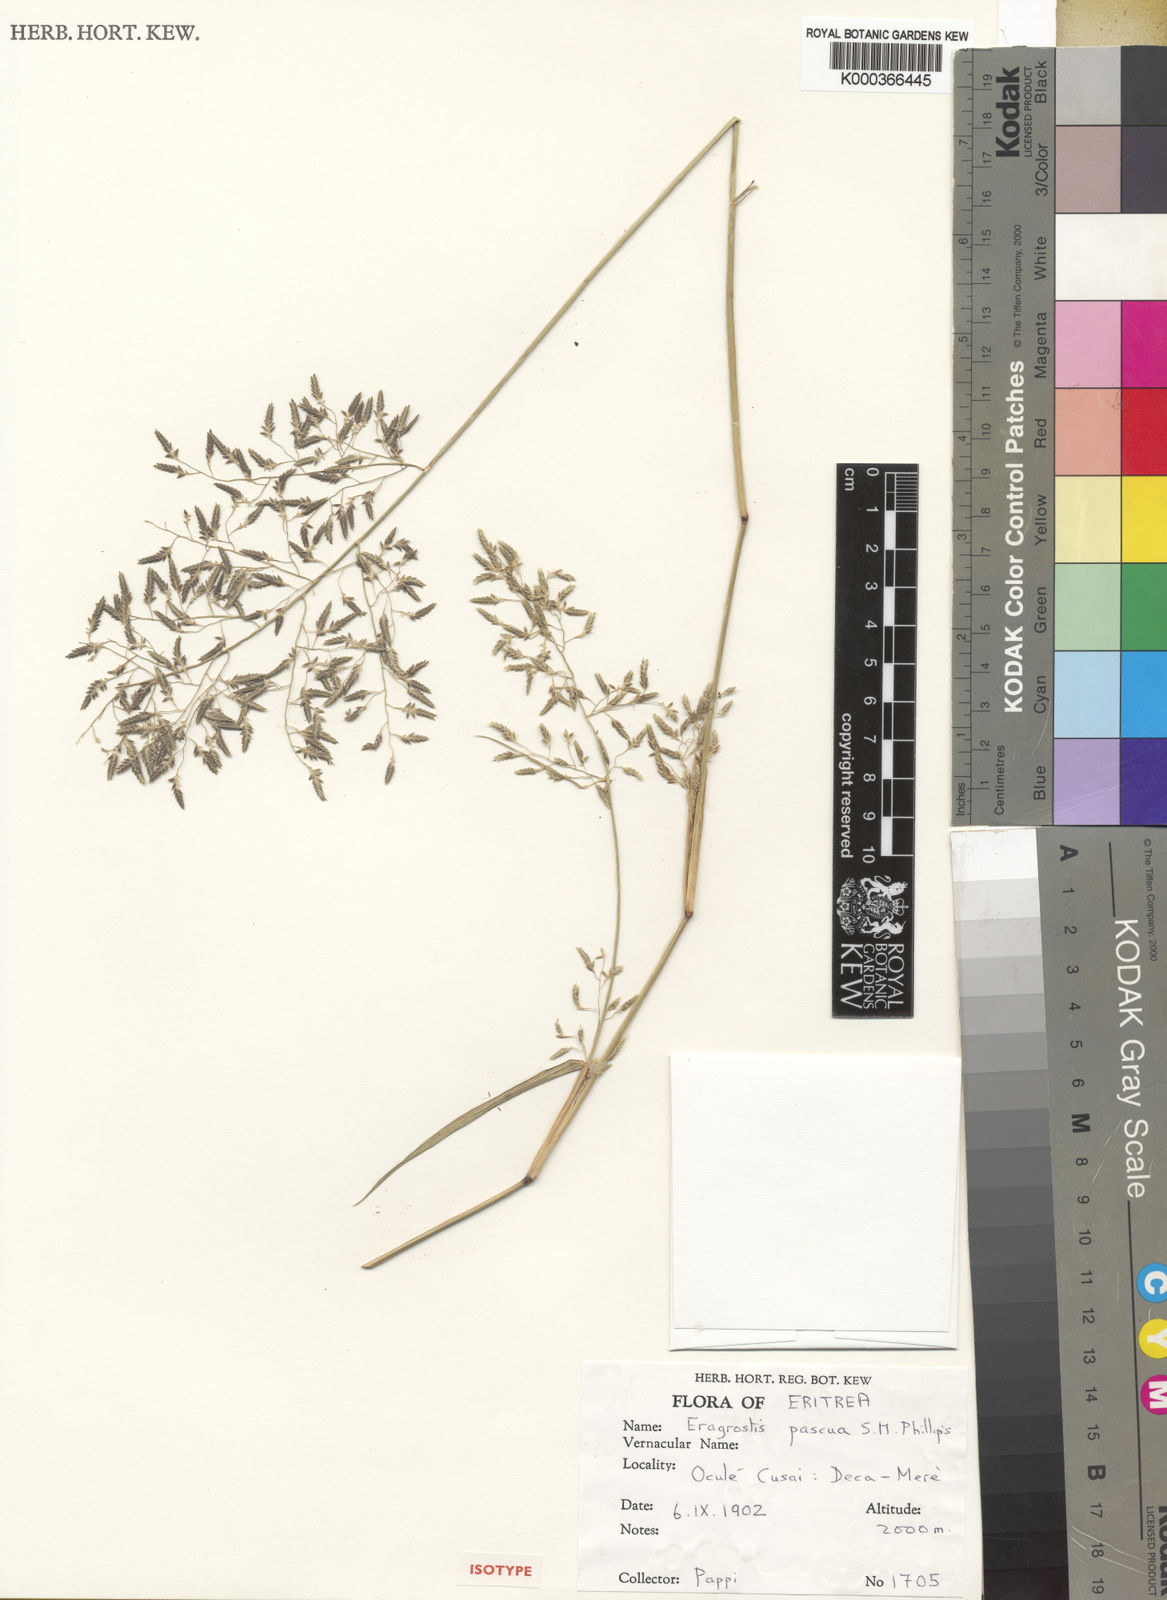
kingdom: Plantae
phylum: Tracheophyta
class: Liliopsida
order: Poales
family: Poaceae
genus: Eragrostis
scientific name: Eragrostis pascua
